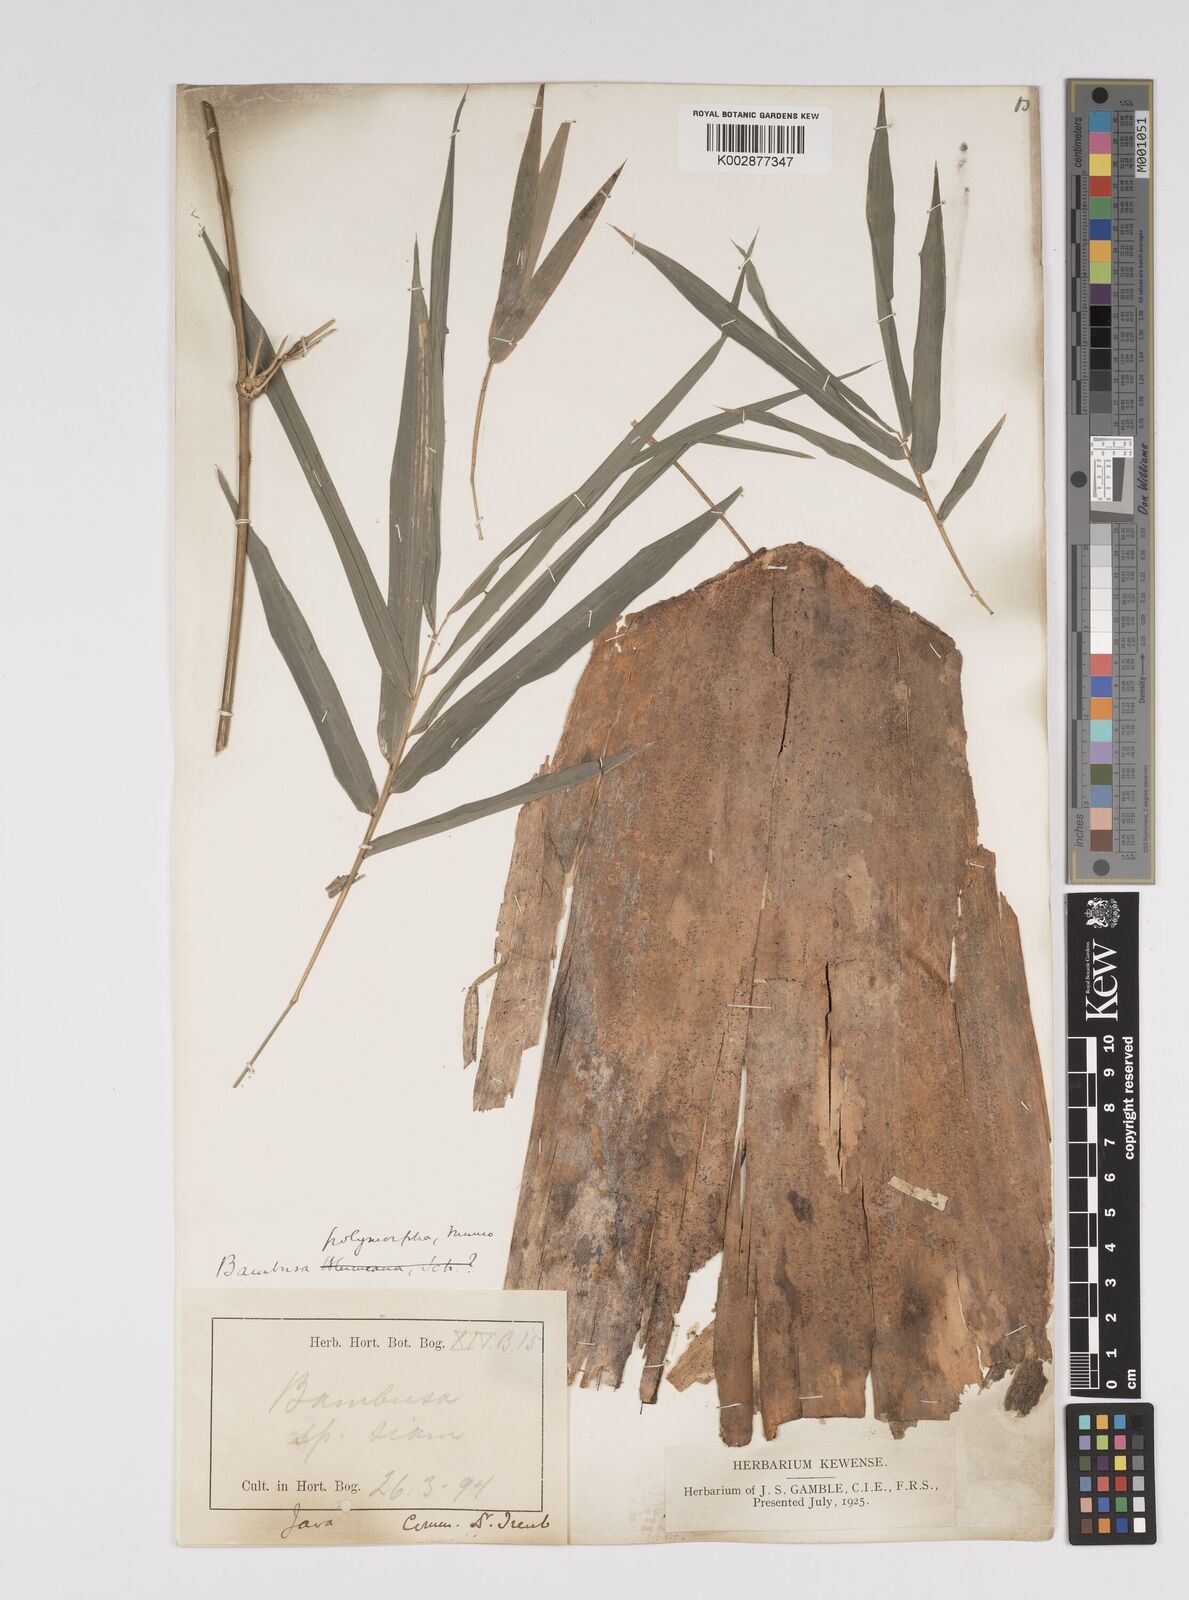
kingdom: Plantae
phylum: Tracheophyta
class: Liliopsida
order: Poales
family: Poaceae
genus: Bambusa
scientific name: Bambusa polymorpha
